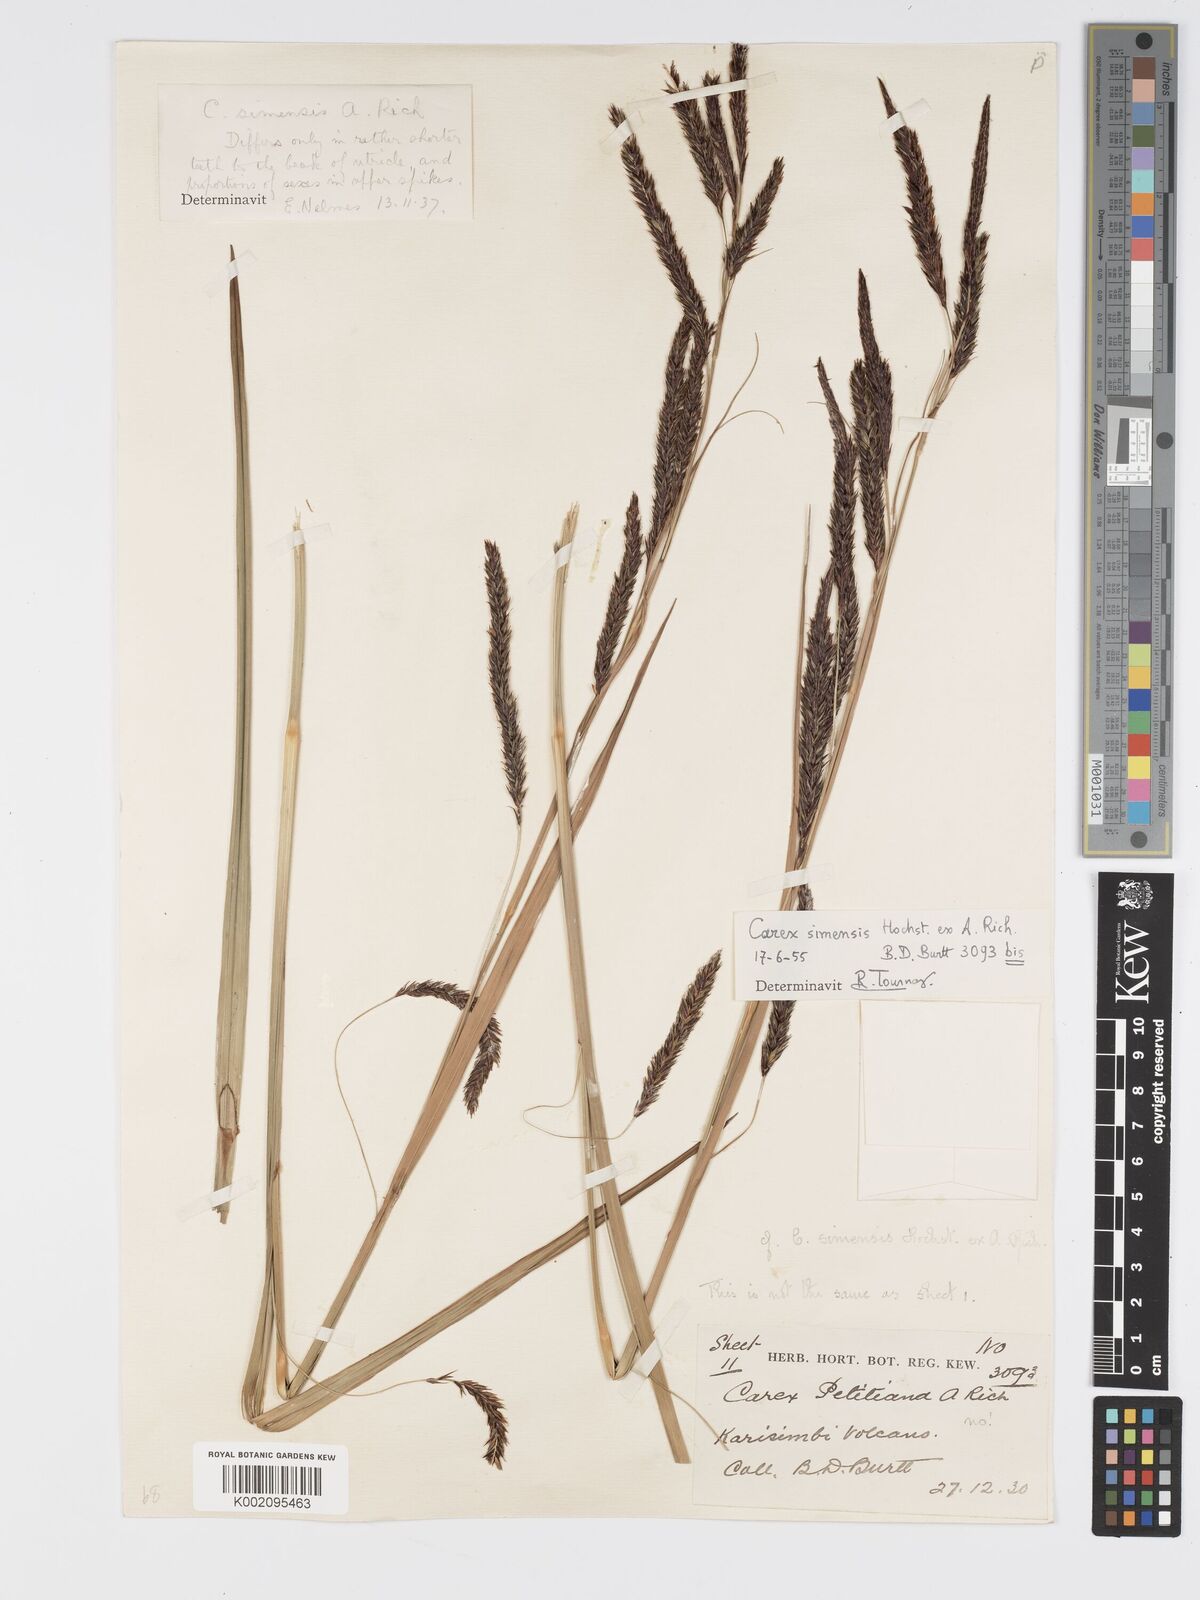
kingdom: Plantae
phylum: Tracheophyta
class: Liliopsida
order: Poales
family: Cyperaceae
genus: Carex
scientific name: Carex simensis
